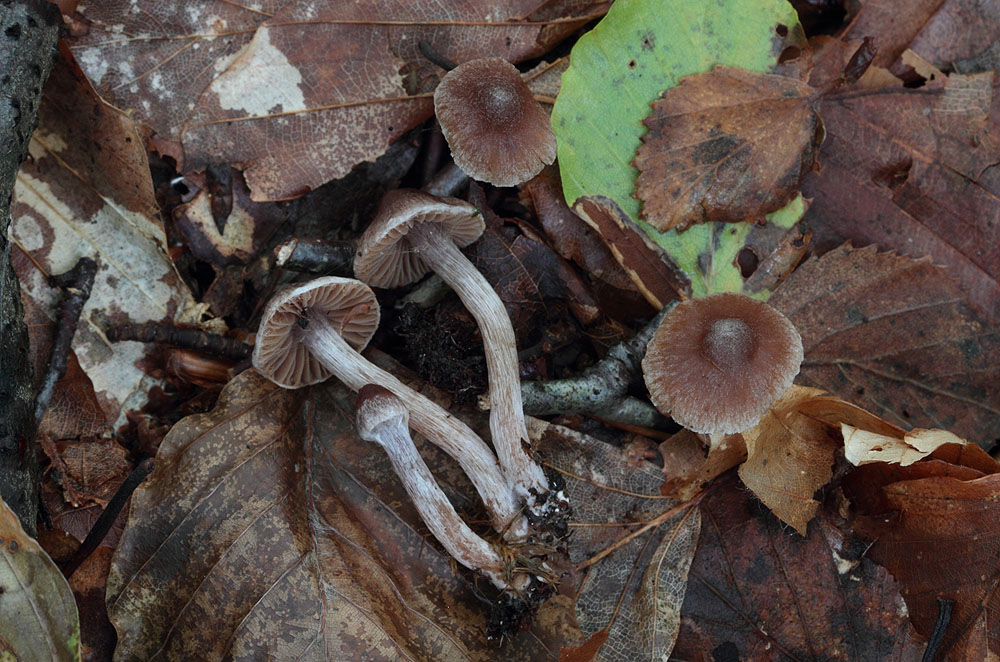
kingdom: Fungi
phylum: Basidiomycota
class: Agaricomycetes
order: Agaricales
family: Cortinariaceae
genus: Cortinarius
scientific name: Cortinarius comptulus
